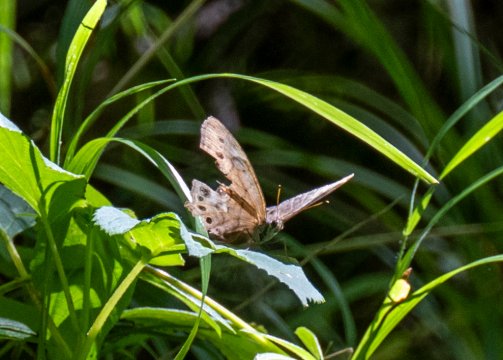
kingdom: Animalia
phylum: Arthropoda
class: Insecta
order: Lepidoptera
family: Nymphalidae
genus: Lethe
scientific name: Lethe anthedon
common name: Northern Pearly-Eye
